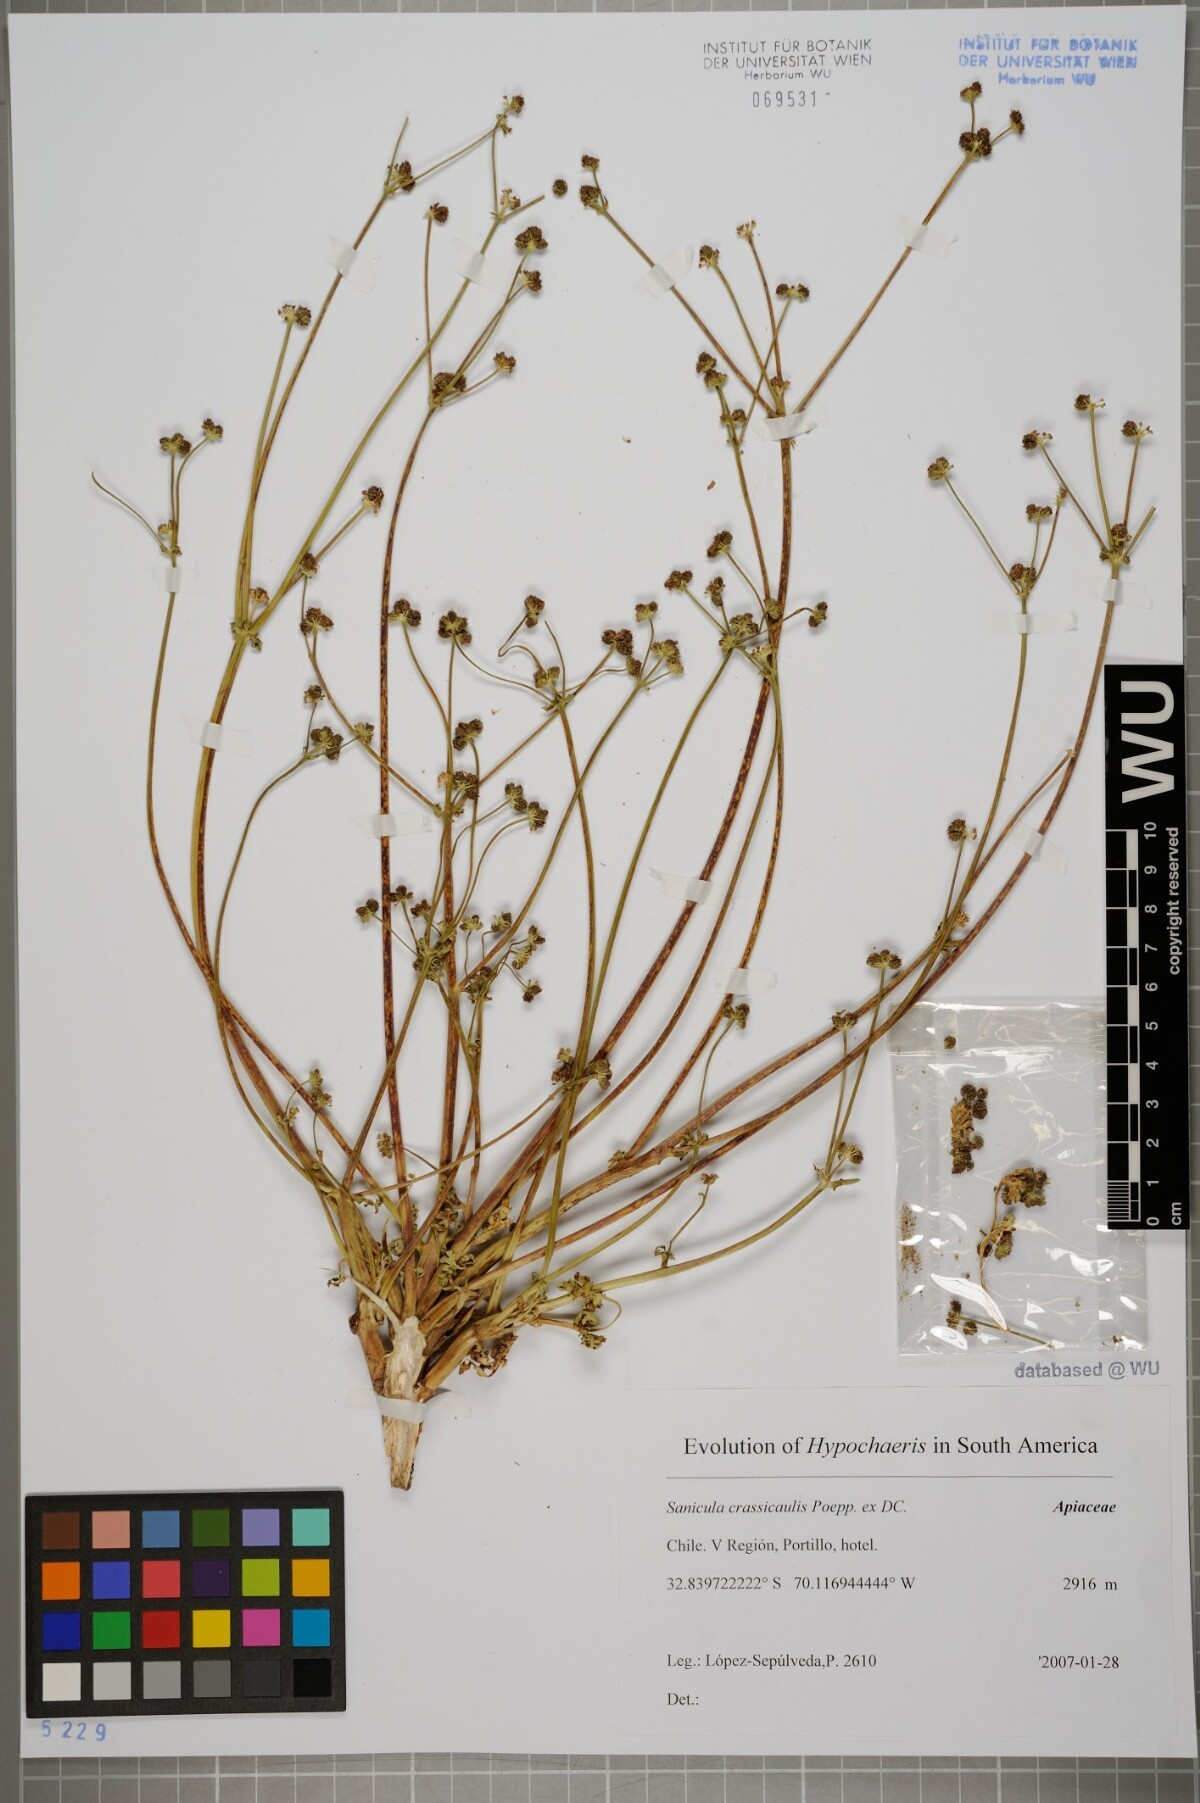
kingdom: Plantae
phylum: Tracheophyta
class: Magnoliopsida
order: Apiales
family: Apiaceae
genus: Sanicula
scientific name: Sanicula crassicaulis
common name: Western snakeroot
